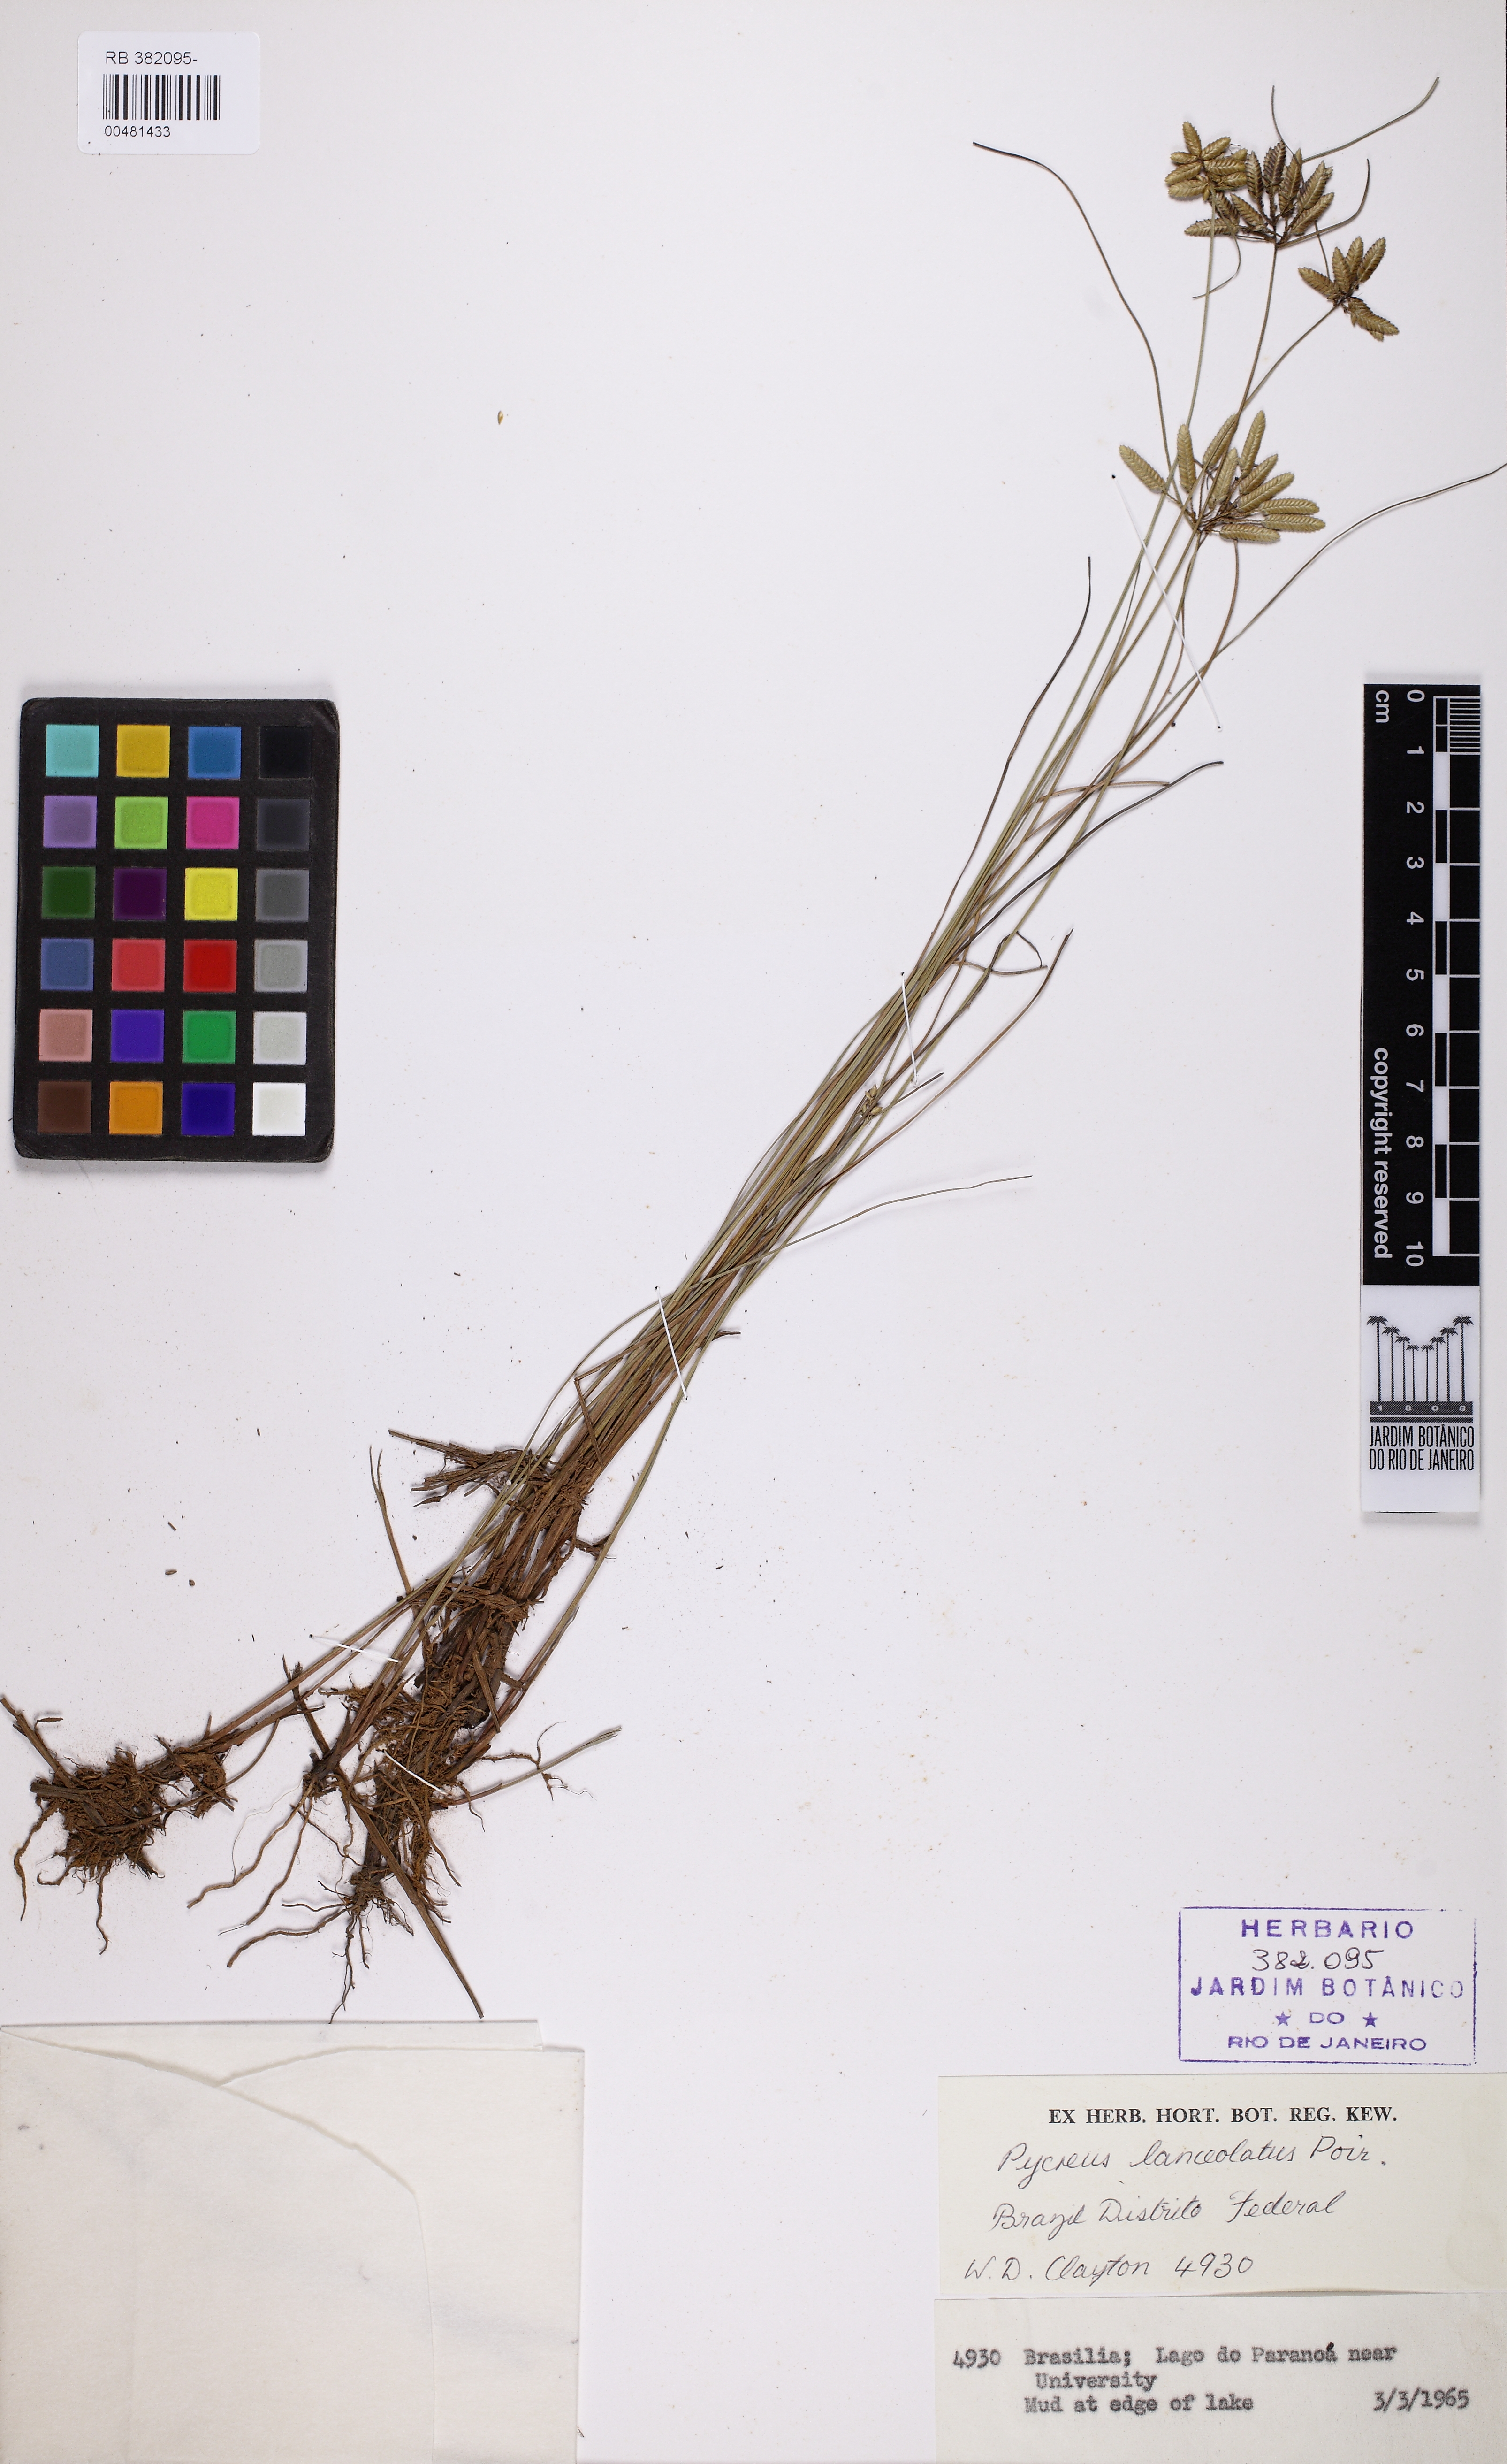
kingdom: Plantae
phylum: Tracheophyta
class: Liliopsida
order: Poales
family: Cyperaceae
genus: Cyperus
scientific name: Cyperus lanceolatus
